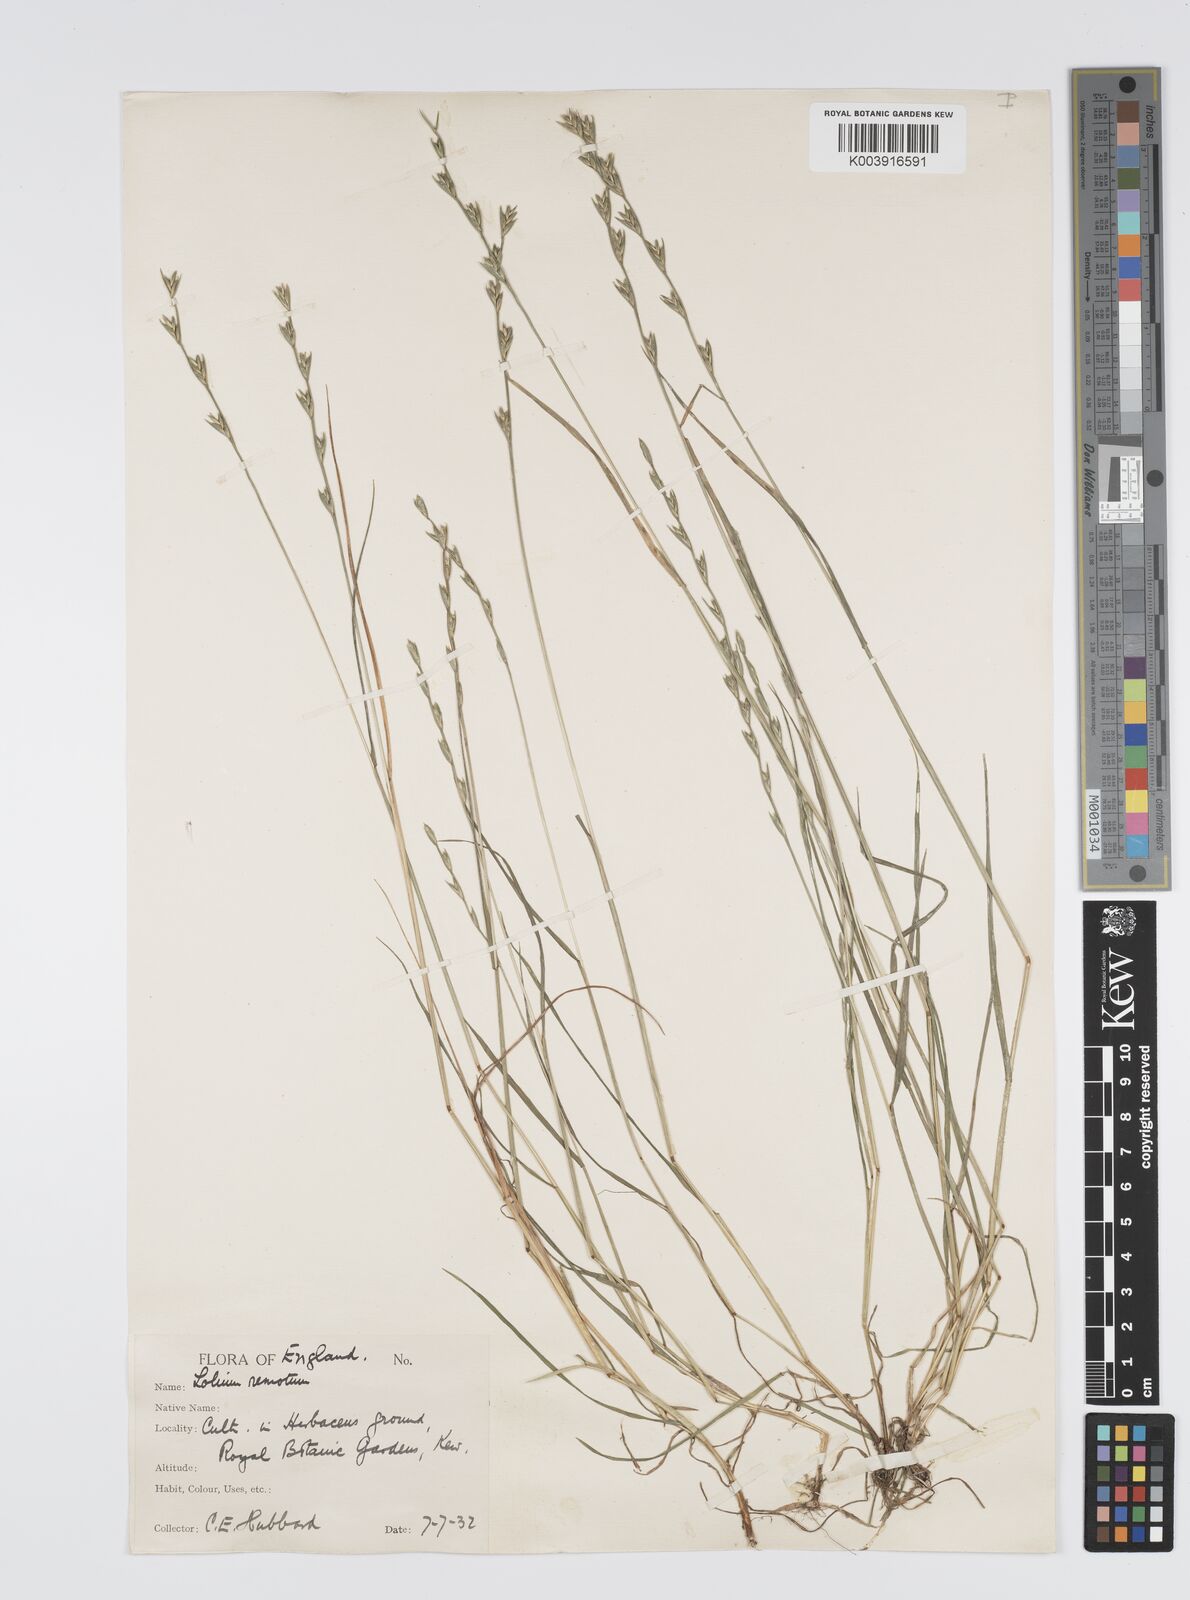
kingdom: Plantae
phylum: Tracheophyta
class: Liliopsida
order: Poales
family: Poaceae
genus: Lolium
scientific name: Lolium remotum
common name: Flaxfield rye-grass
